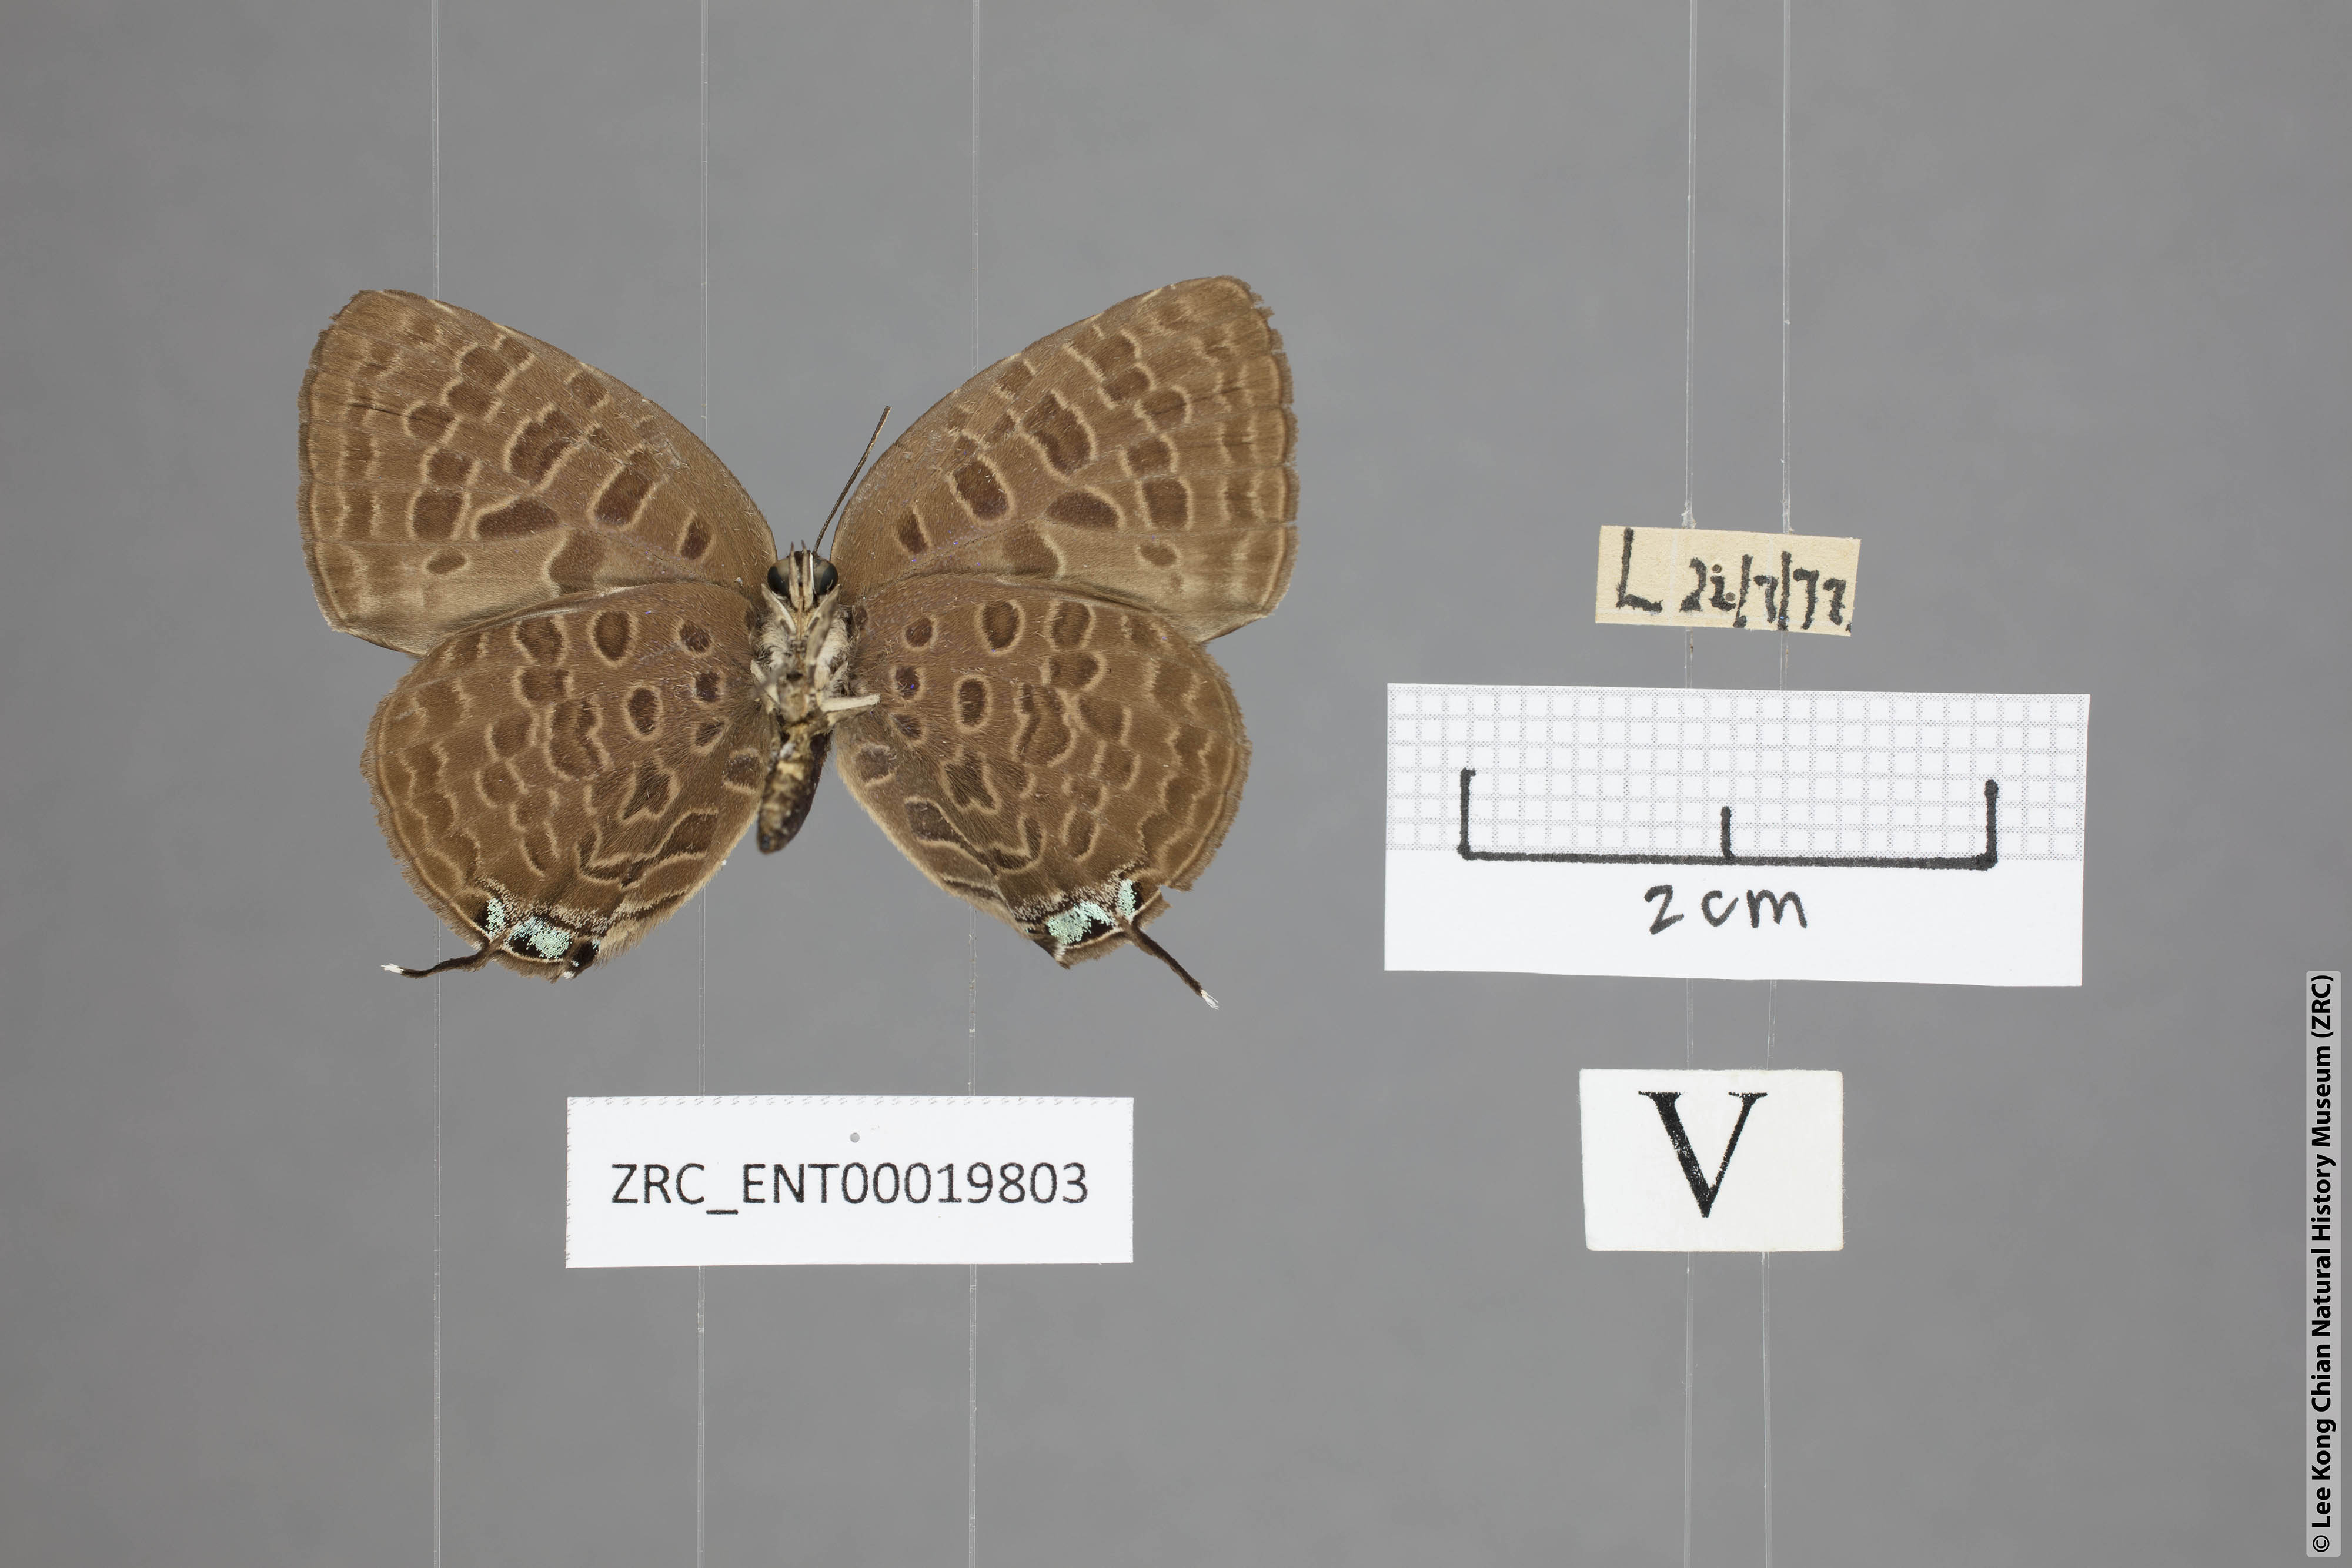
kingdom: Animalia
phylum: Arthropoda
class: Insecta
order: Lepidoptera
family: Lycaenidae
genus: Arhopala
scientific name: Arhopala pseudomuta
